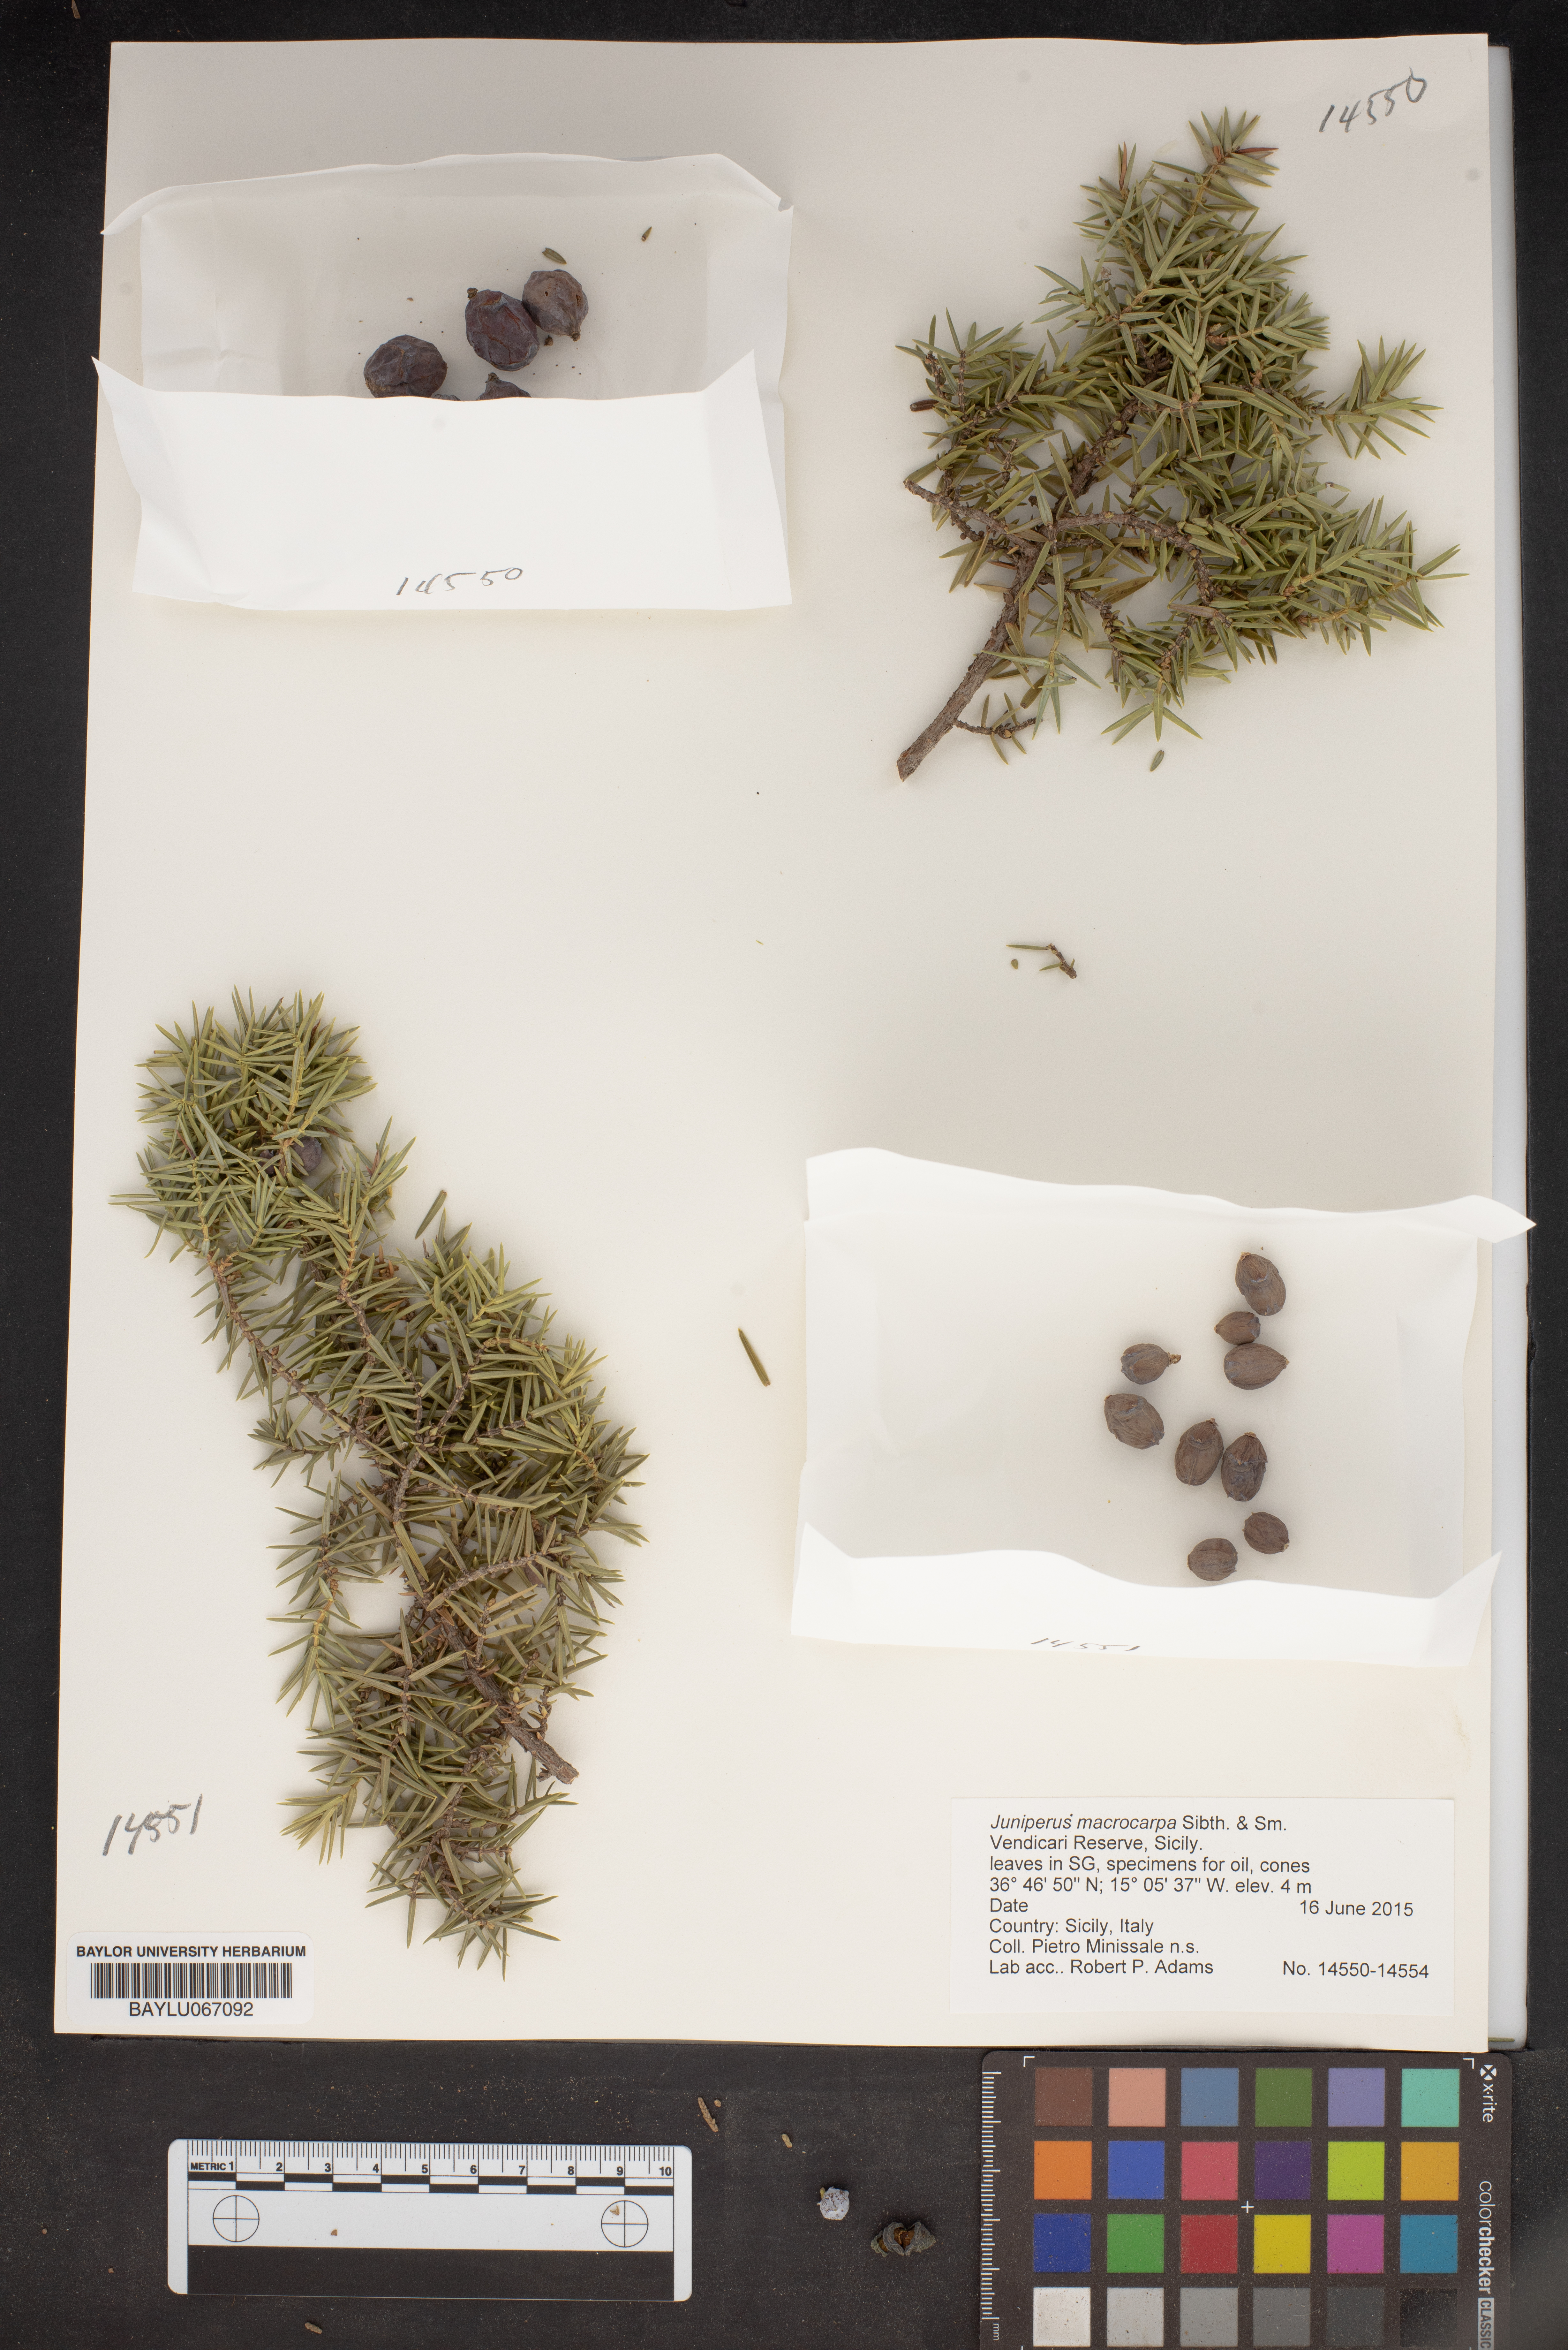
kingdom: Plantae
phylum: Tracheophyta
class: Pinopsida
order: Pinales
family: Cupressaceae
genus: Juniperus
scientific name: Juniperus oxycedrus
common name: Prickly juniper
